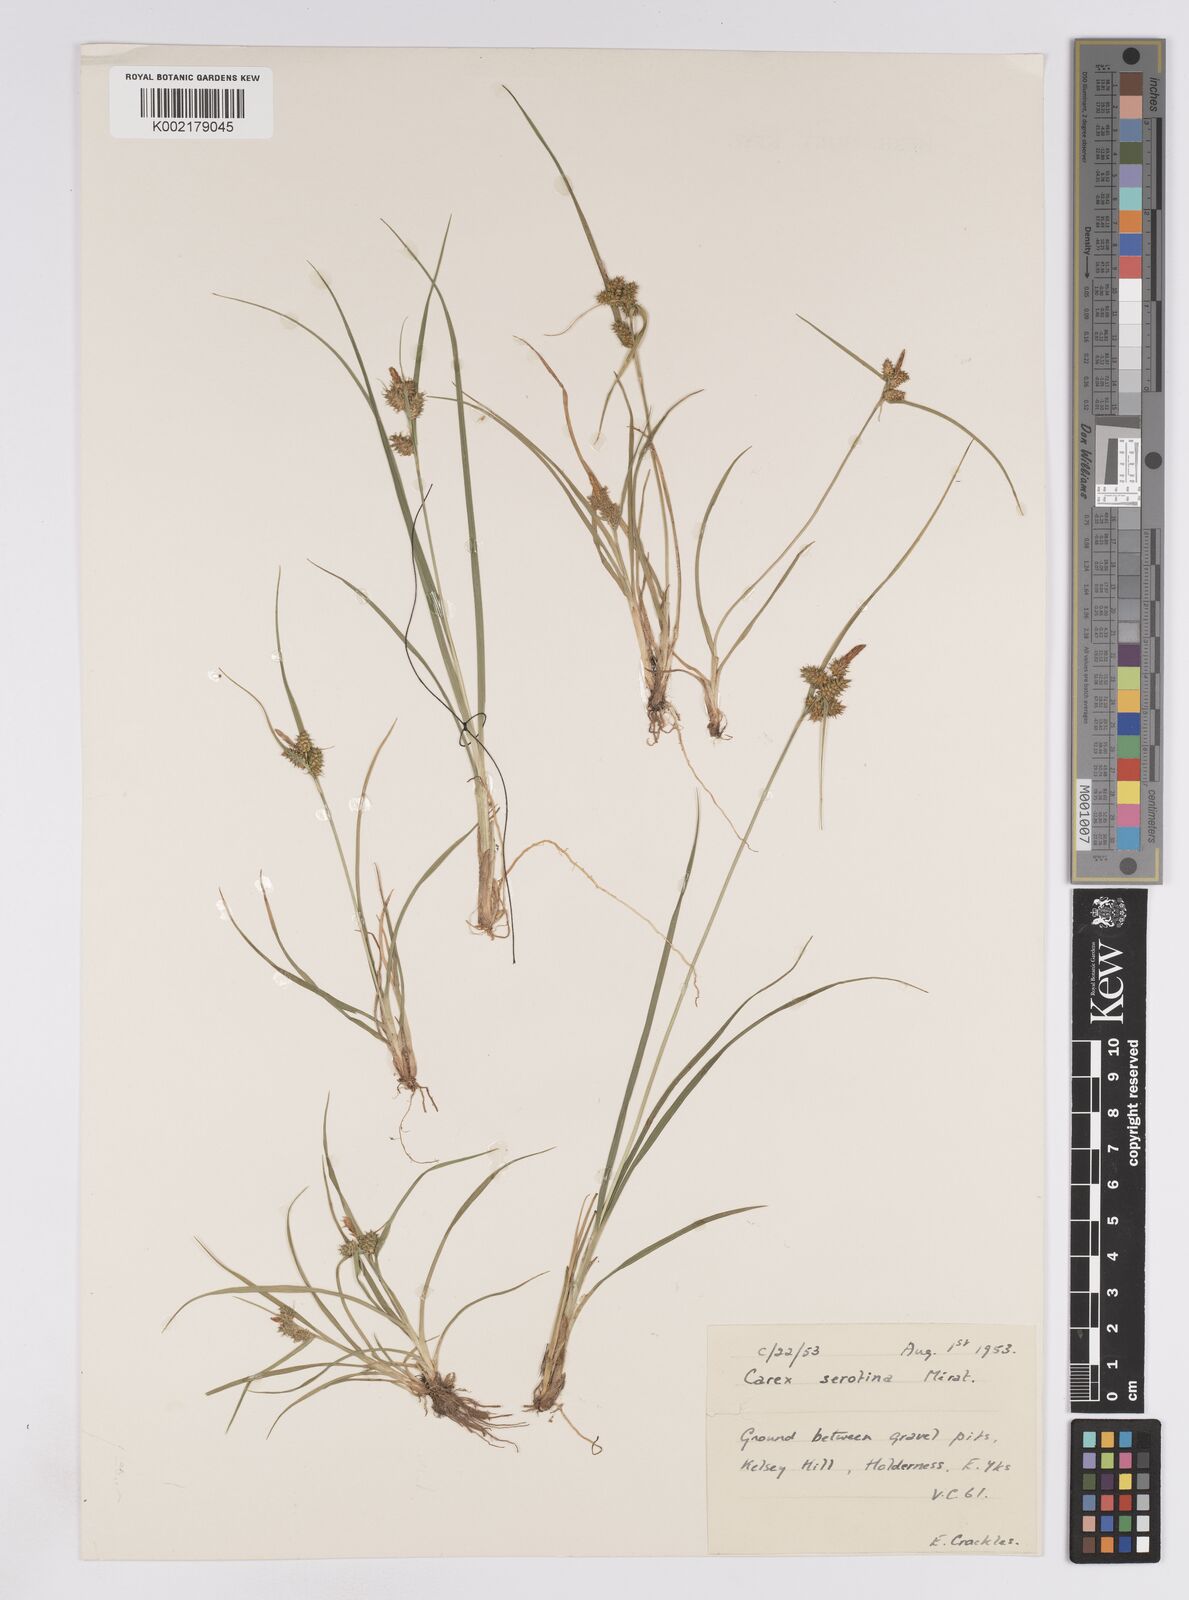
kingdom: Plantae
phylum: Tracheophyta
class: Liliopsida
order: Poales
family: Cyperaceae
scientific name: Cyperaceae
